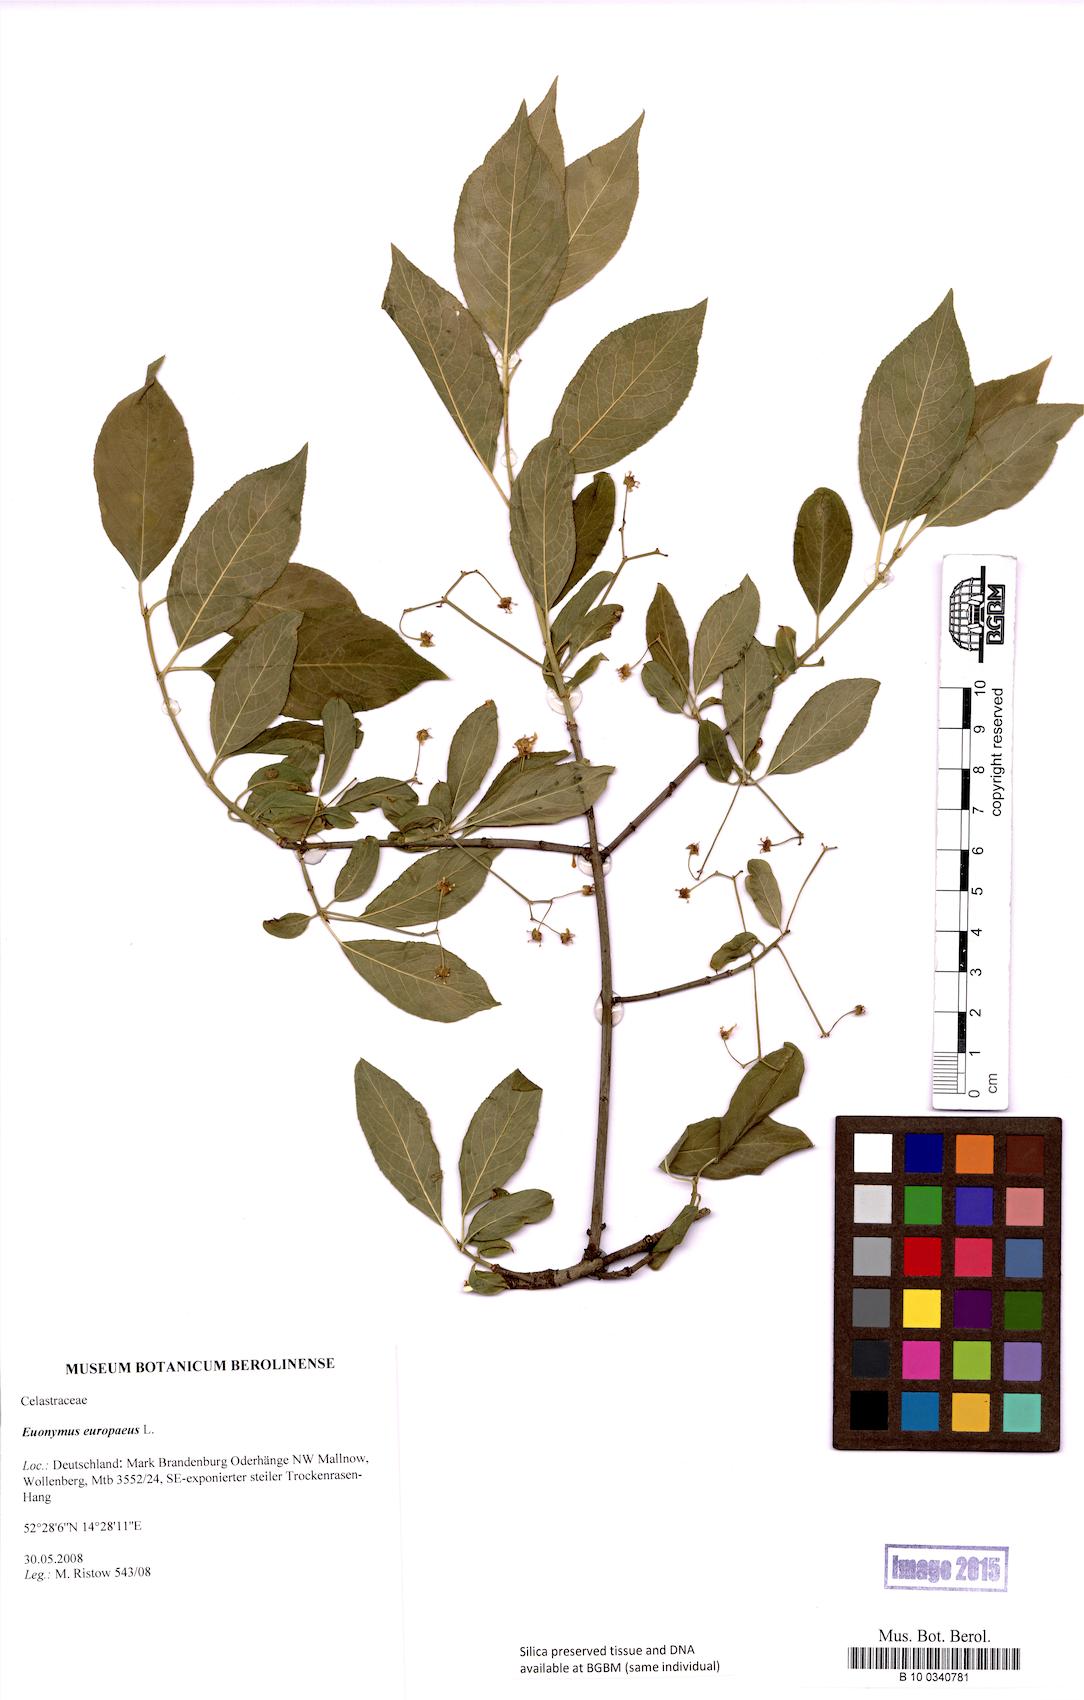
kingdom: Plantae
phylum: Tracheophyta
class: Magnoliopsida
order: Celastrales
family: Celastraceae
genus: Euonymus
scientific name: Euonymus europaeus
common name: Spindle
